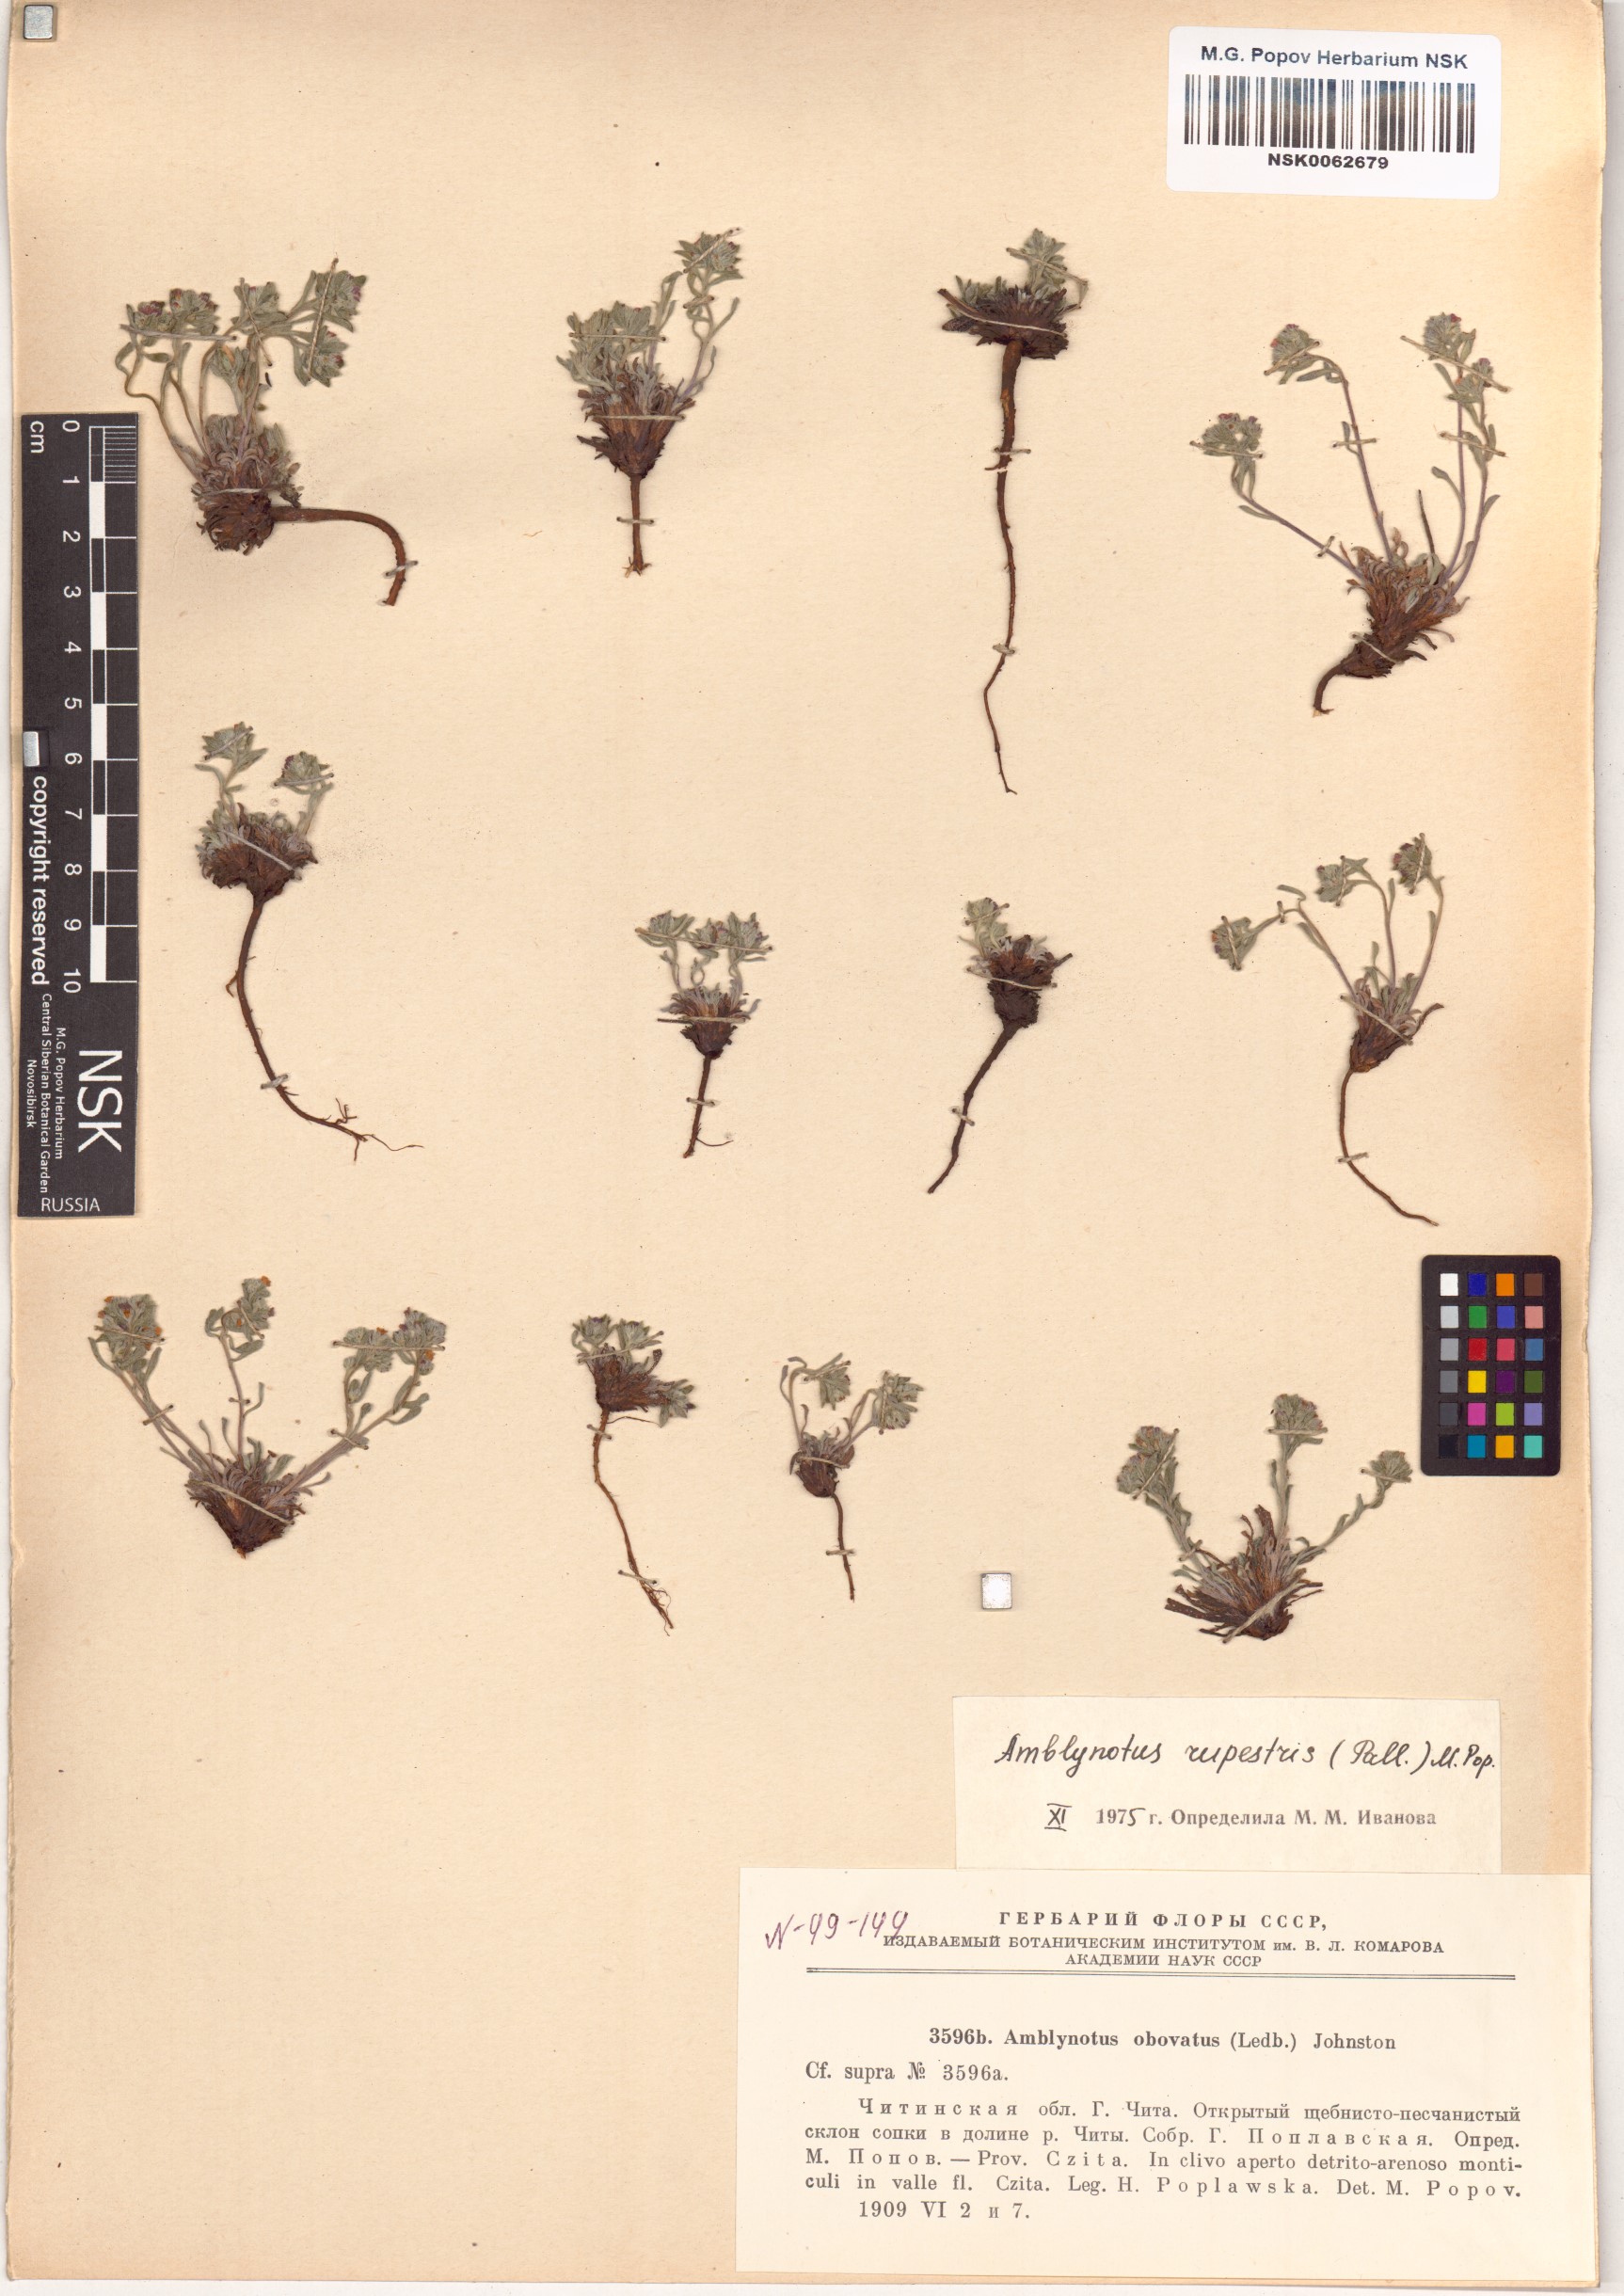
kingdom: Plantae
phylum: Tracheophyta
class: Magnoliopsida
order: Boraginales
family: Boraginaceae
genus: Eritrichium
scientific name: Eritrichium rupestre
